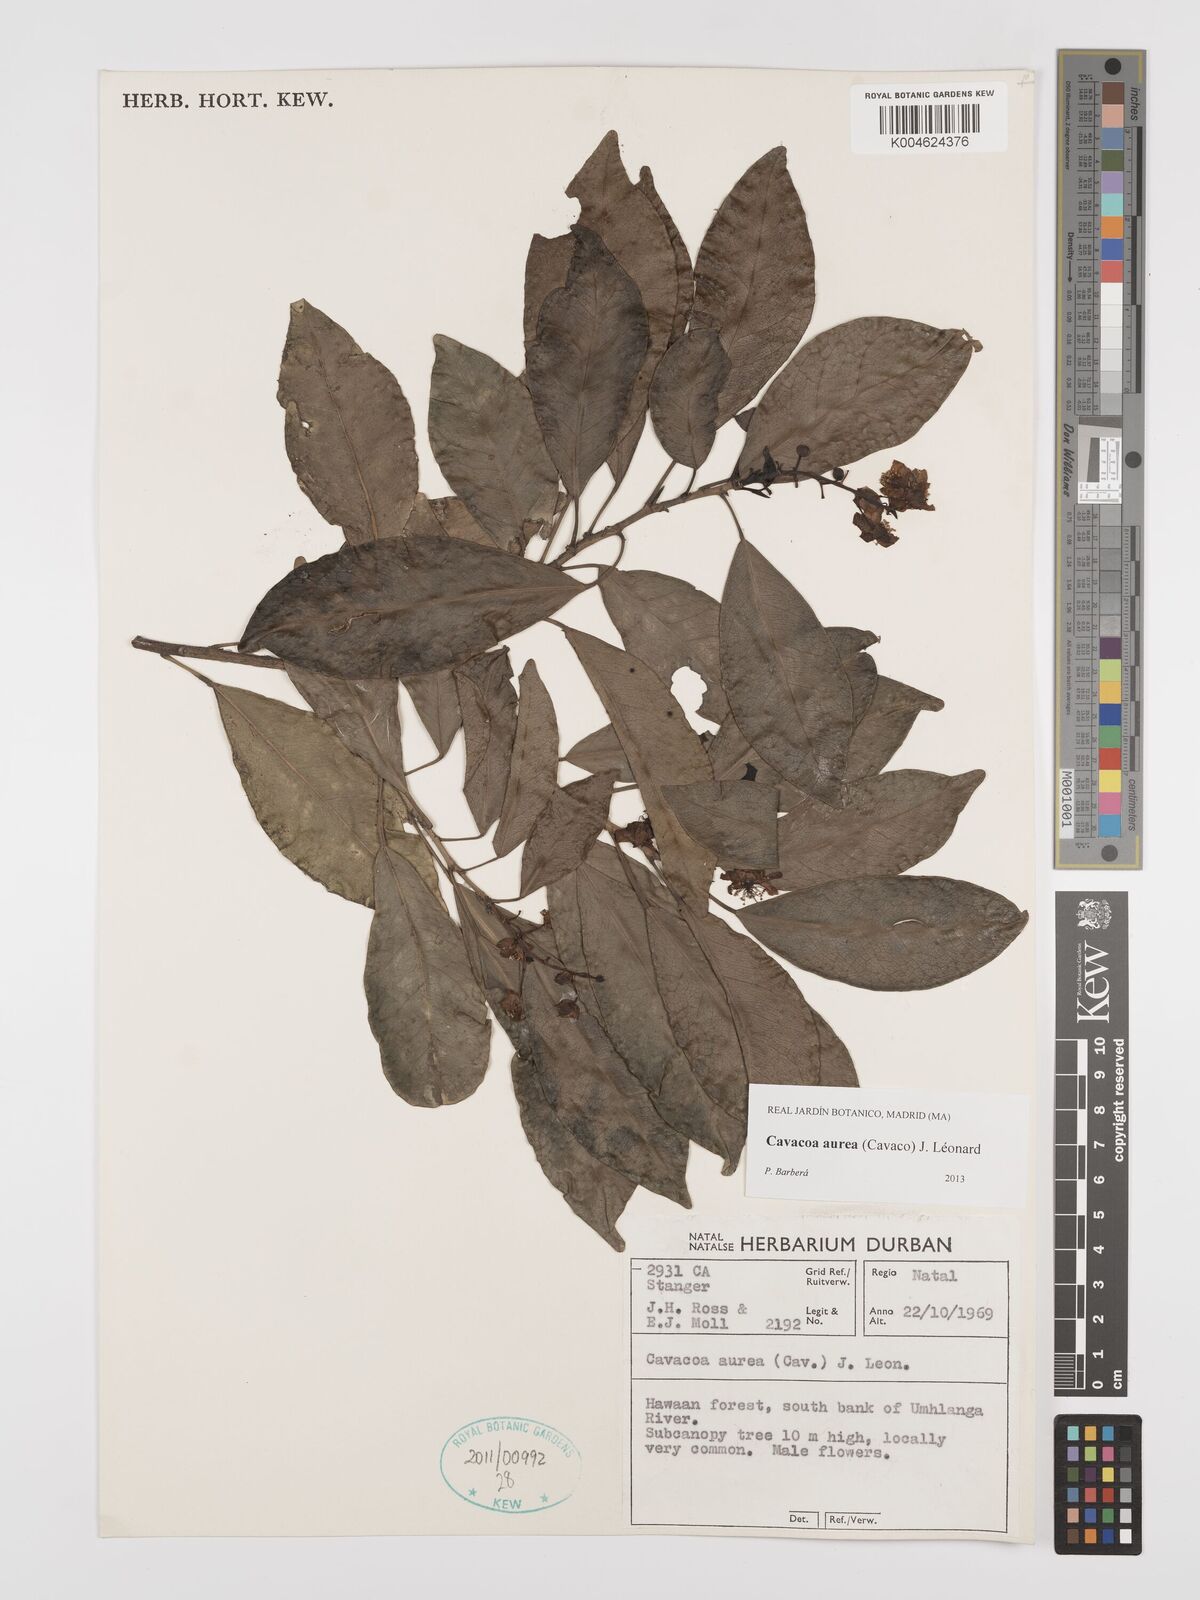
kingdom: Plantae
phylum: Tracheophyta
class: Magnoliopsida
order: Malpighiales
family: Euphorbiaceae
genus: Cavacoa
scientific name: Cavacoa aurea
